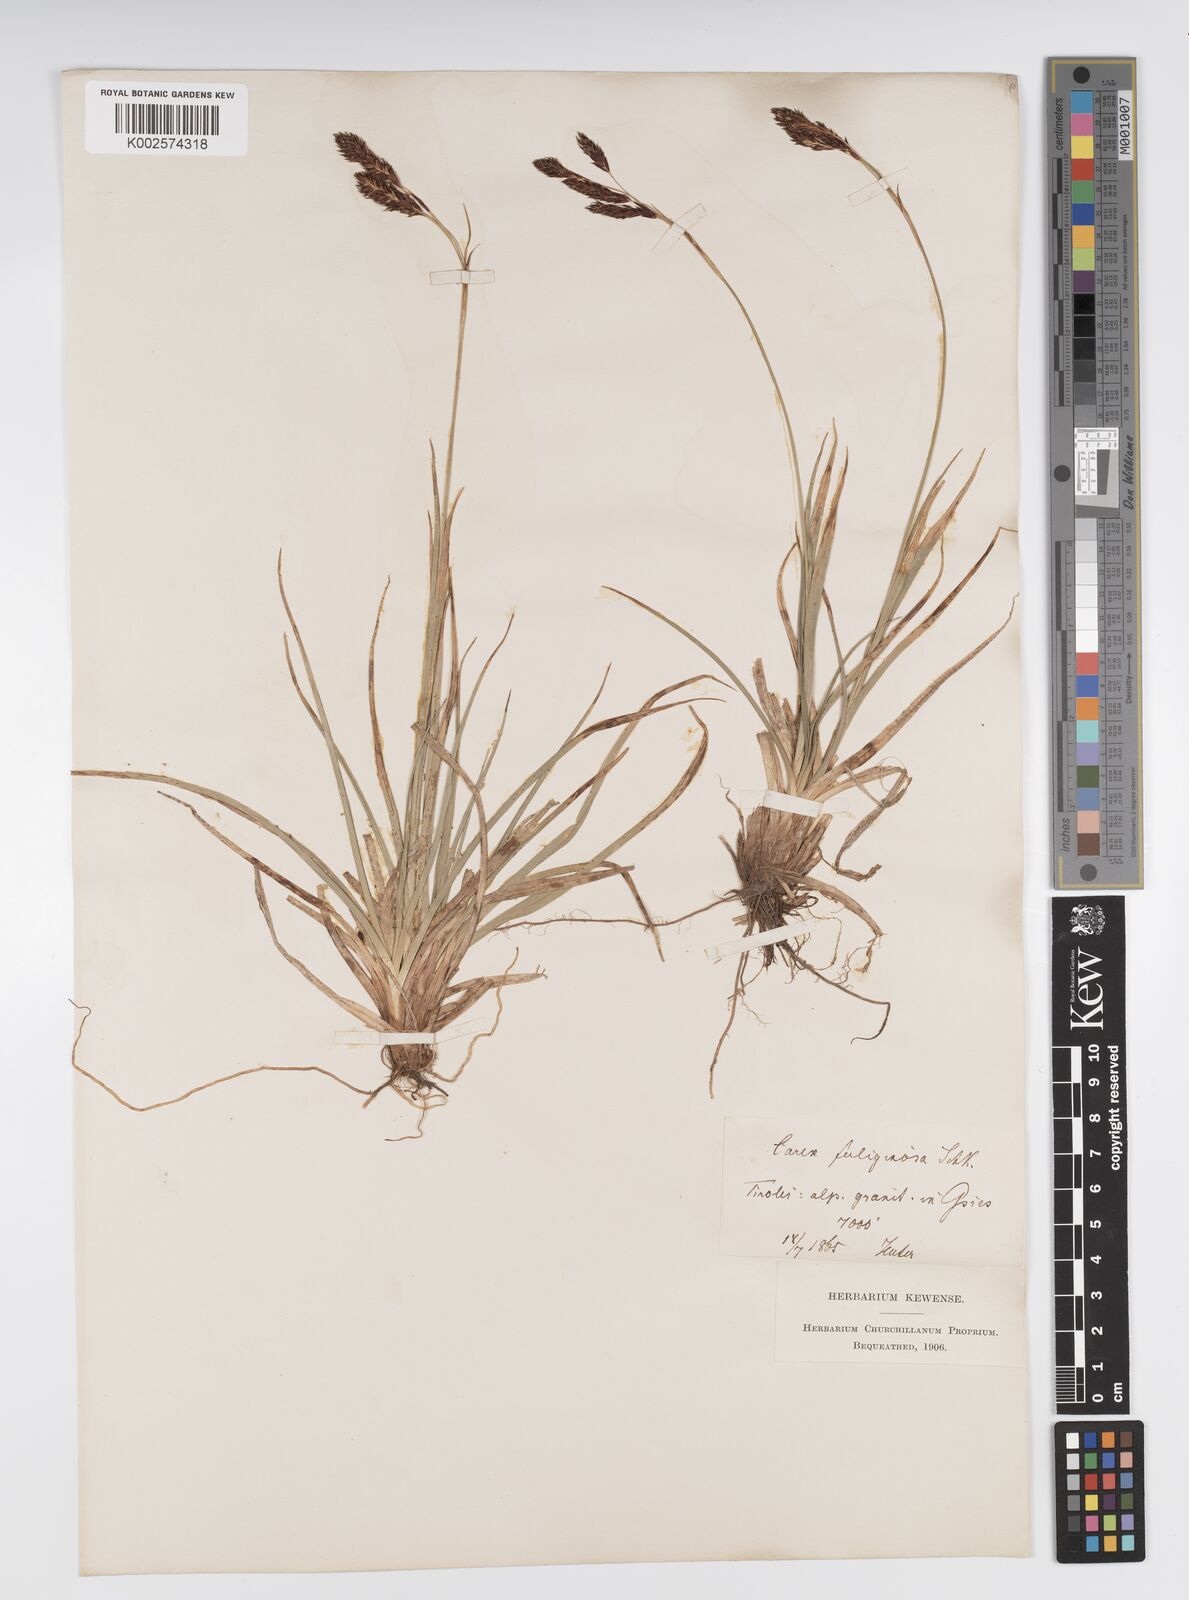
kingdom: Plantae
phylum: Tracheophyta
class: Liliopsida
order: Poales
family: Cyperaceae
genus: Carex
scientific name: Carex fuliginosa
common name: Few-flowered sedge
